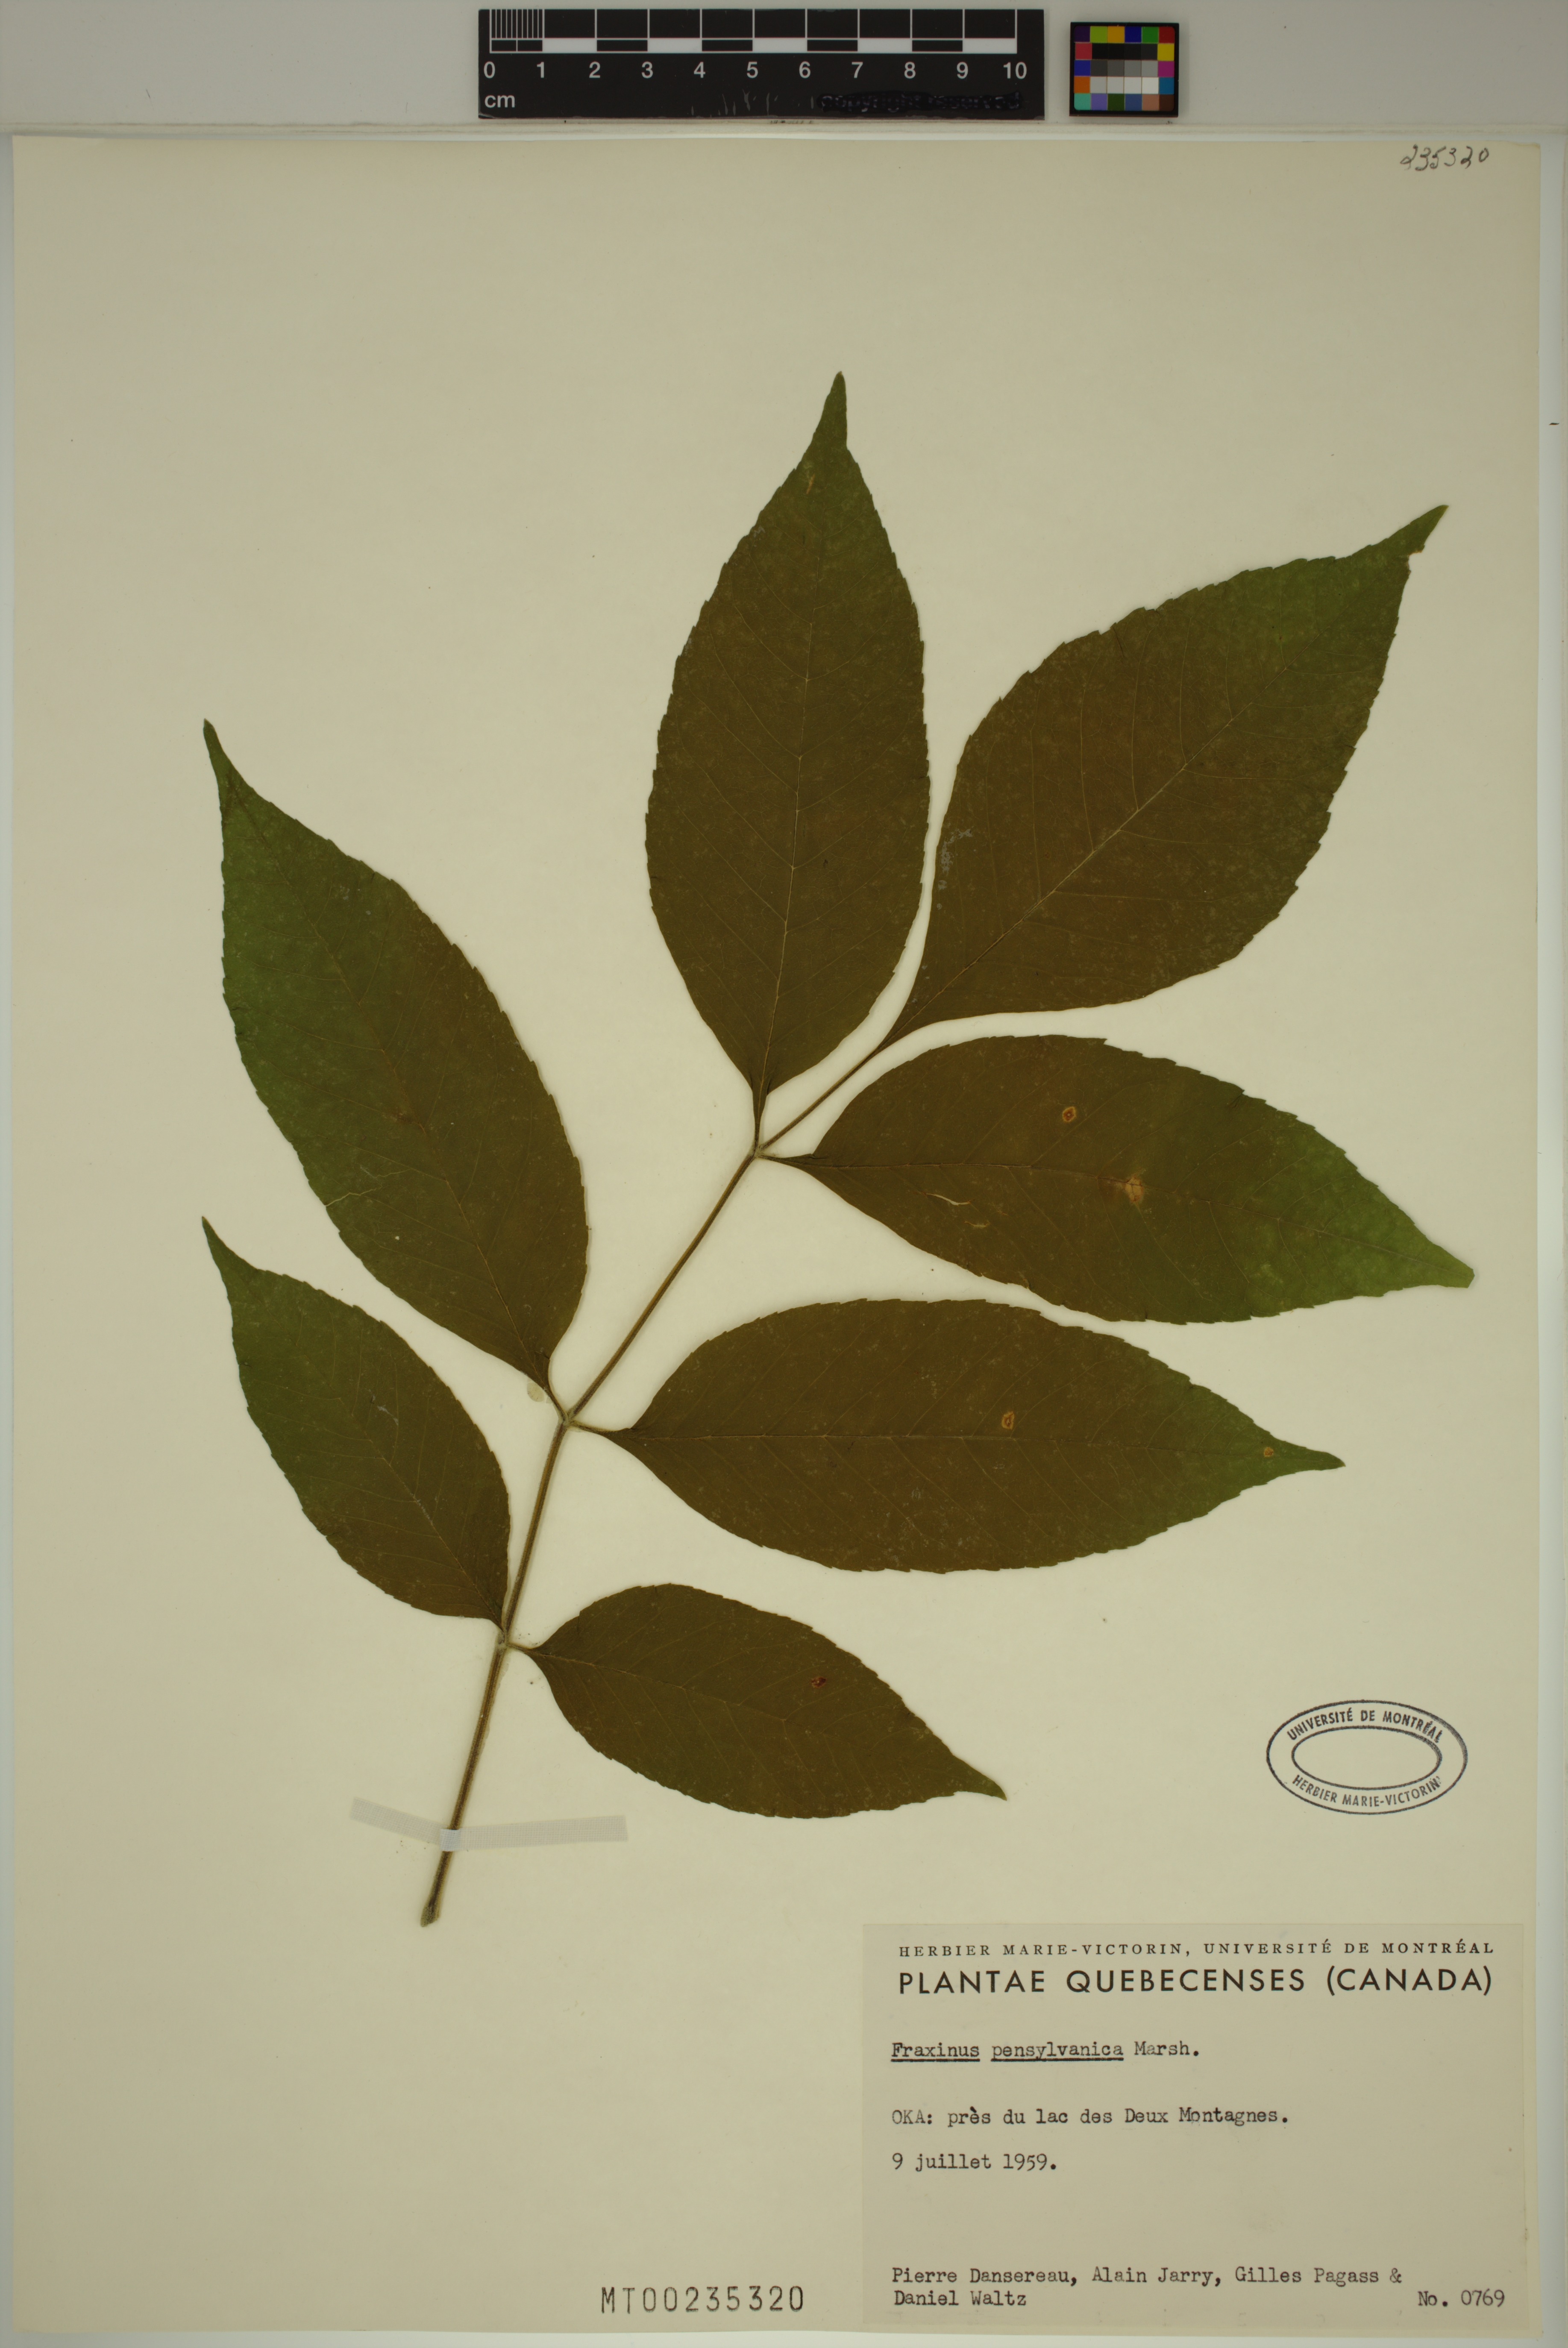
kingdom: Plantae
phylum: Tracheophyta
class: Magnoliopsida
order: Lamiales
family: Oleaceae
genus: Fraxinus
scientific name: Fraxinus pennsylvanica
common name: Green ash
